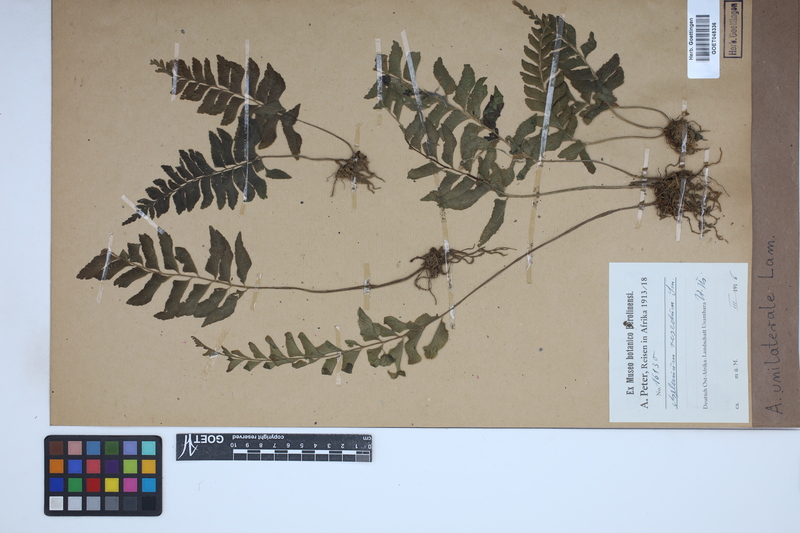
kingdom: Plantae
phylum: Tracheophyta
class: Polypodiopsida
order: Polypodiales
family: Aspleniaceae
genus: Hymenasplenium
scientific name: Hymenasplenium unilaterale
